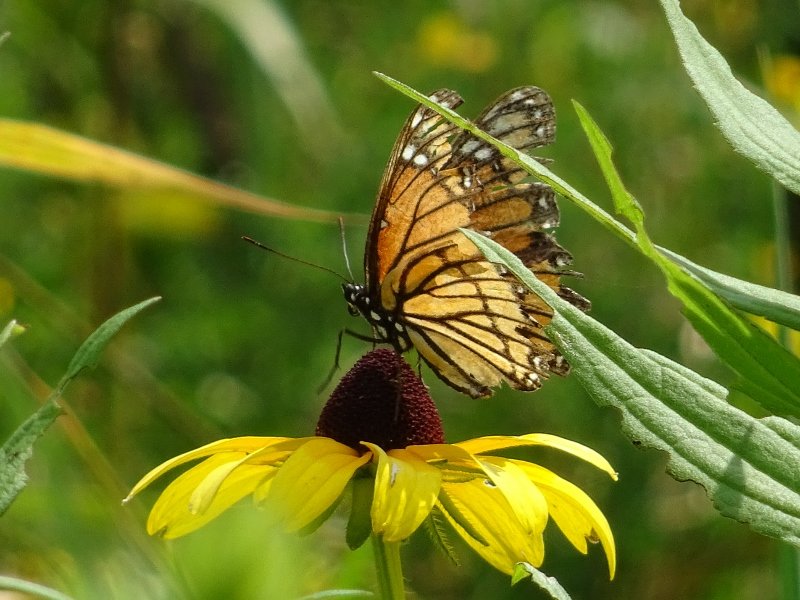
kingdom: Animalia
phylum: Arthropoda
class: Insecta
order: Lepidoptera
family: Nymphalidae
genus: Limenitis
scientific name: Limenitis archippus
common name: Viceroy
